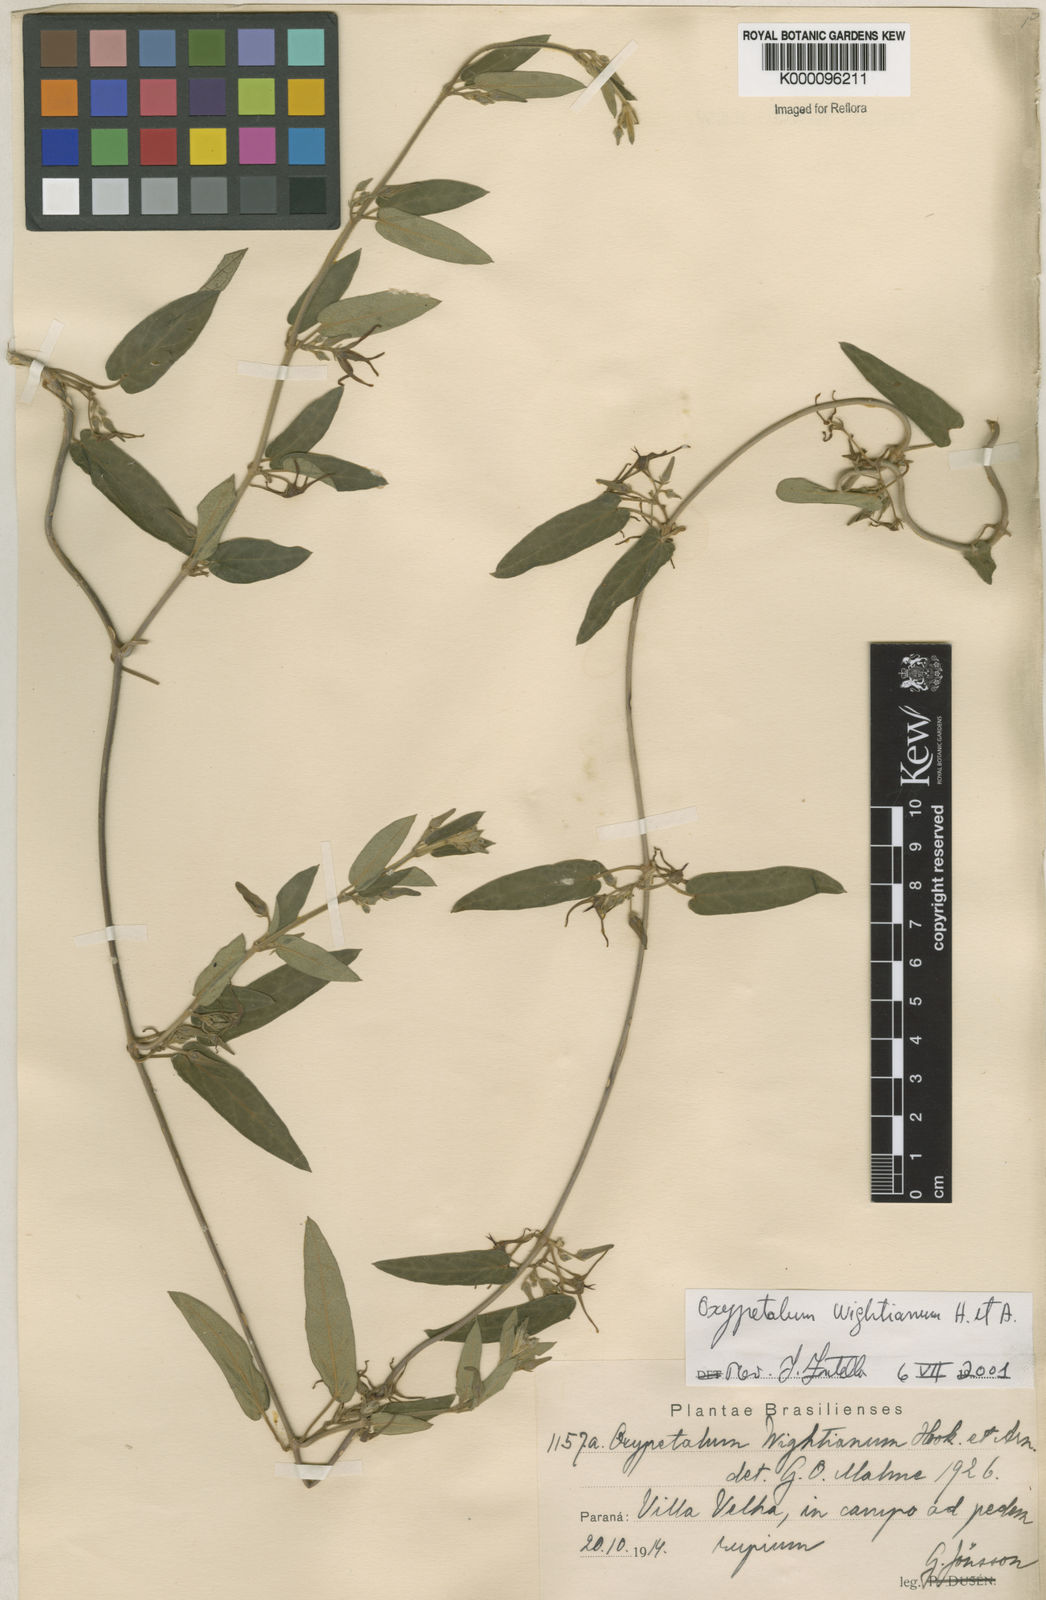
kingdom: Plantae
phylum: Tracheophyta
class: Magnoliopsida
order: Gentianales
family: Apocynaceae
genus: Oxypetalum
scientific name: Oxypetalum wightianum
